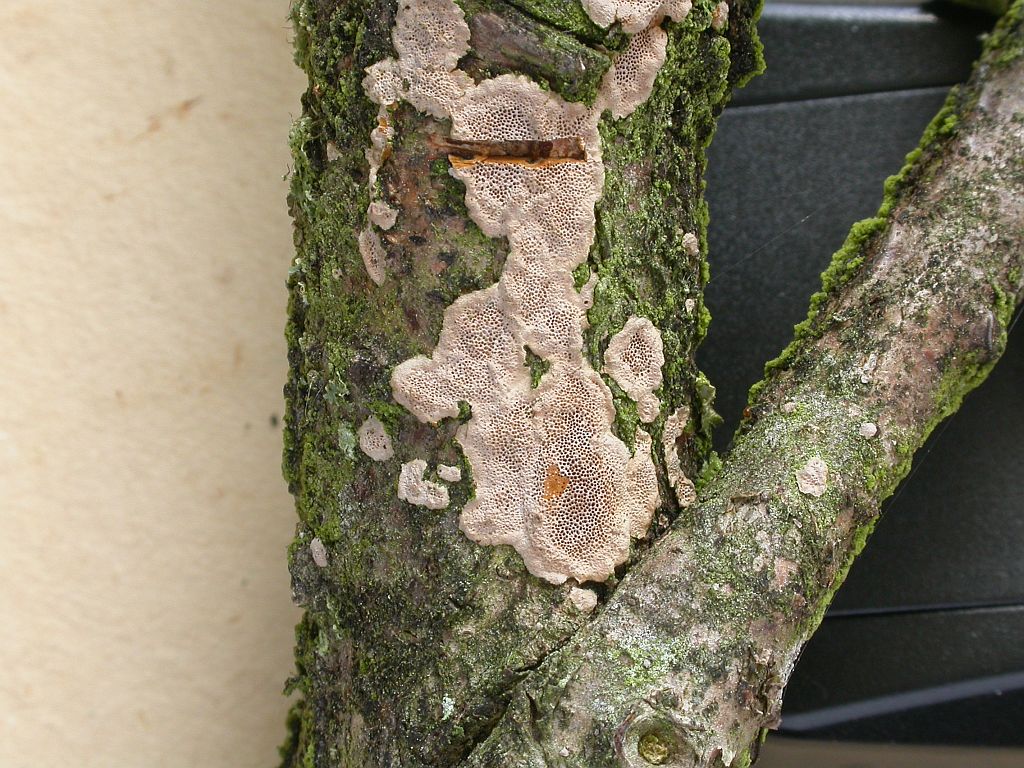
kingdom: Fungi
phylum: Basidiomycota
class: Agaricomycetes
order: Polyporales
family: Irpicaceae
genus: Ceriporia
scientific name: Ceriporia viridans
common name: foranderlig voksporesvamp
